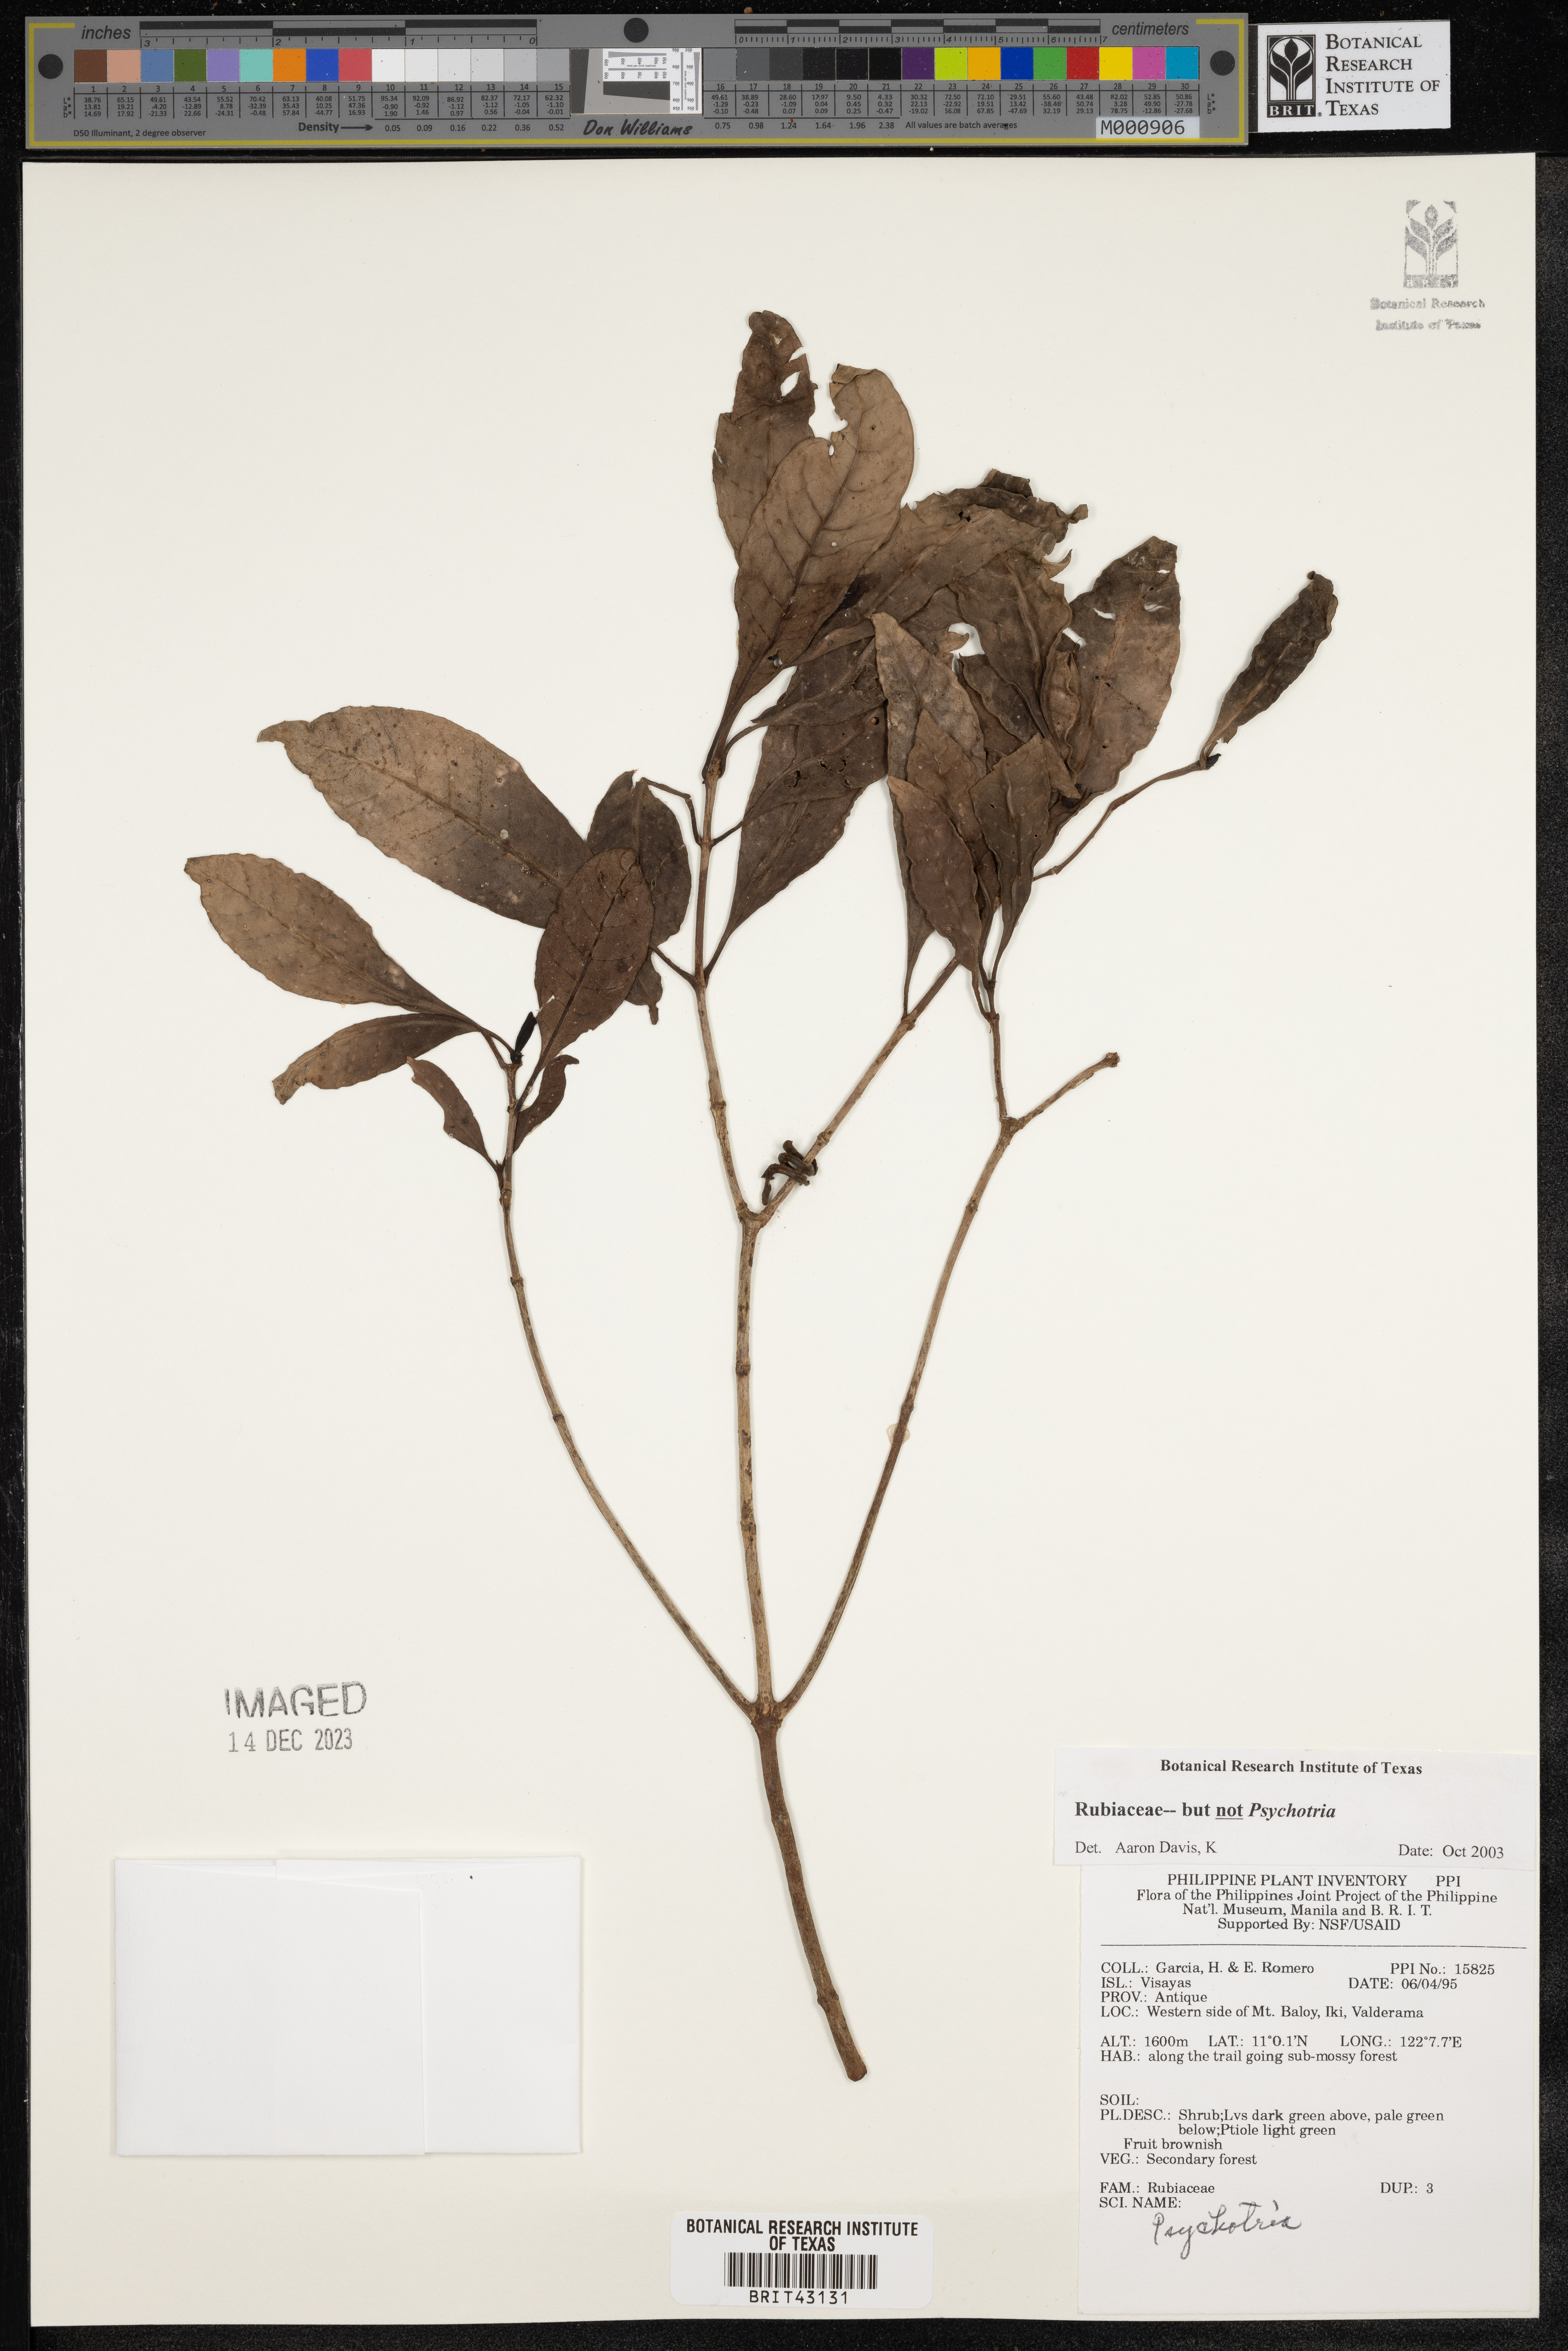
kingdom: Plantae
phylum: Tracheophyta
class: Magnoliopsida
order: Gentianales
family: Rubiaceae
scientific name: Rubiaceae
